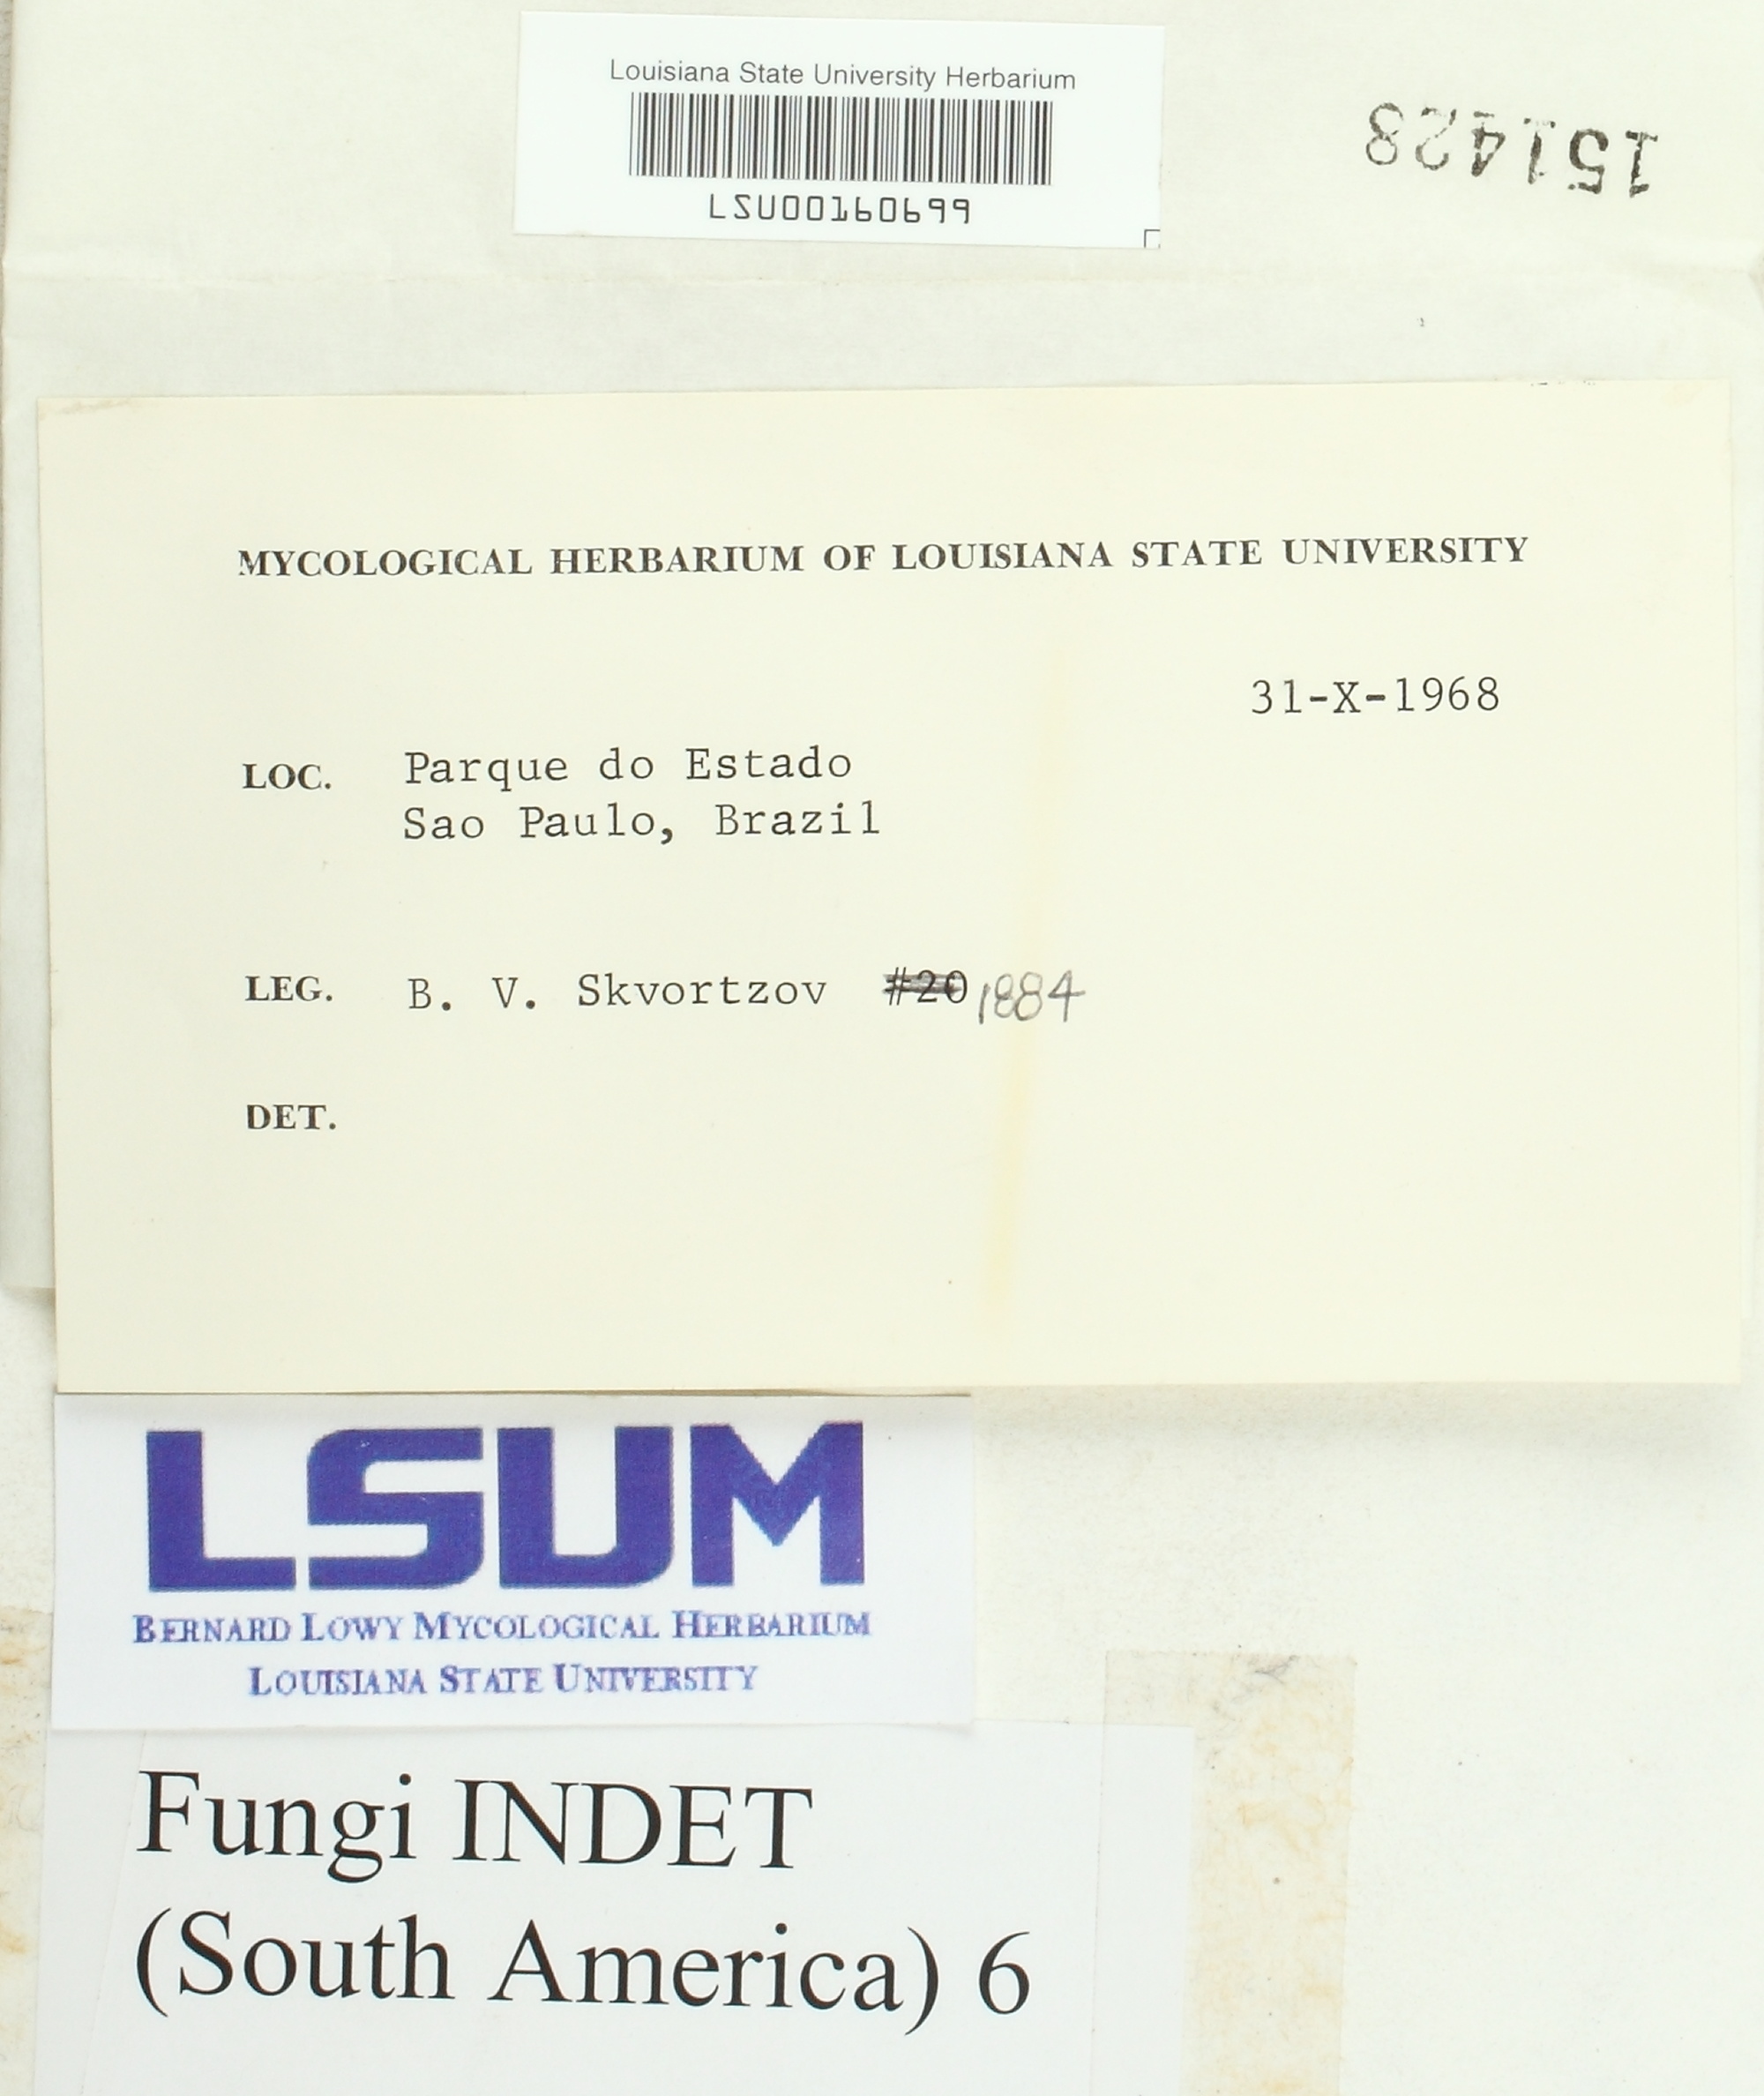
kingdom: Fungi
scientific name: Fungi
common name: Fungi
